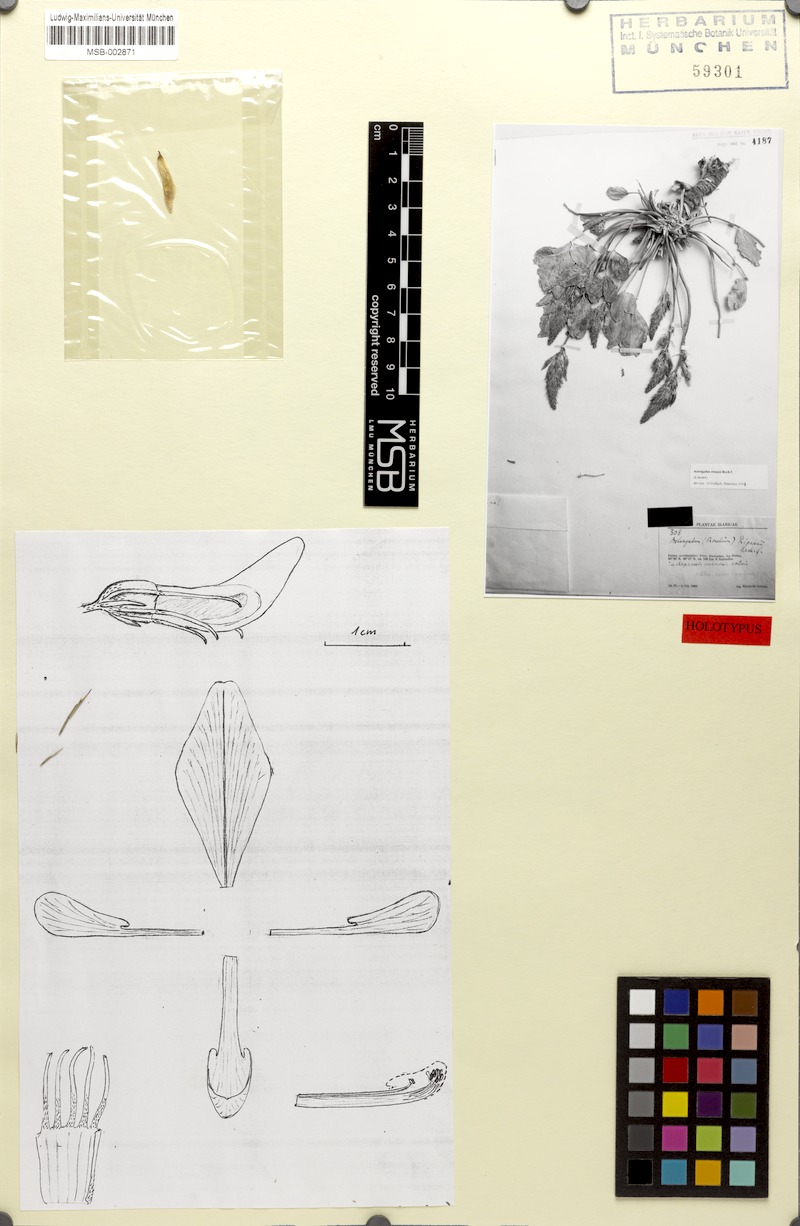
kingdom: Plantae
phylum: Tracheophyta
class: Magnoliopsida
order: Fabales
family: Fabaceae
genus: Astragalus
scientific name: Astragalus riouxii
